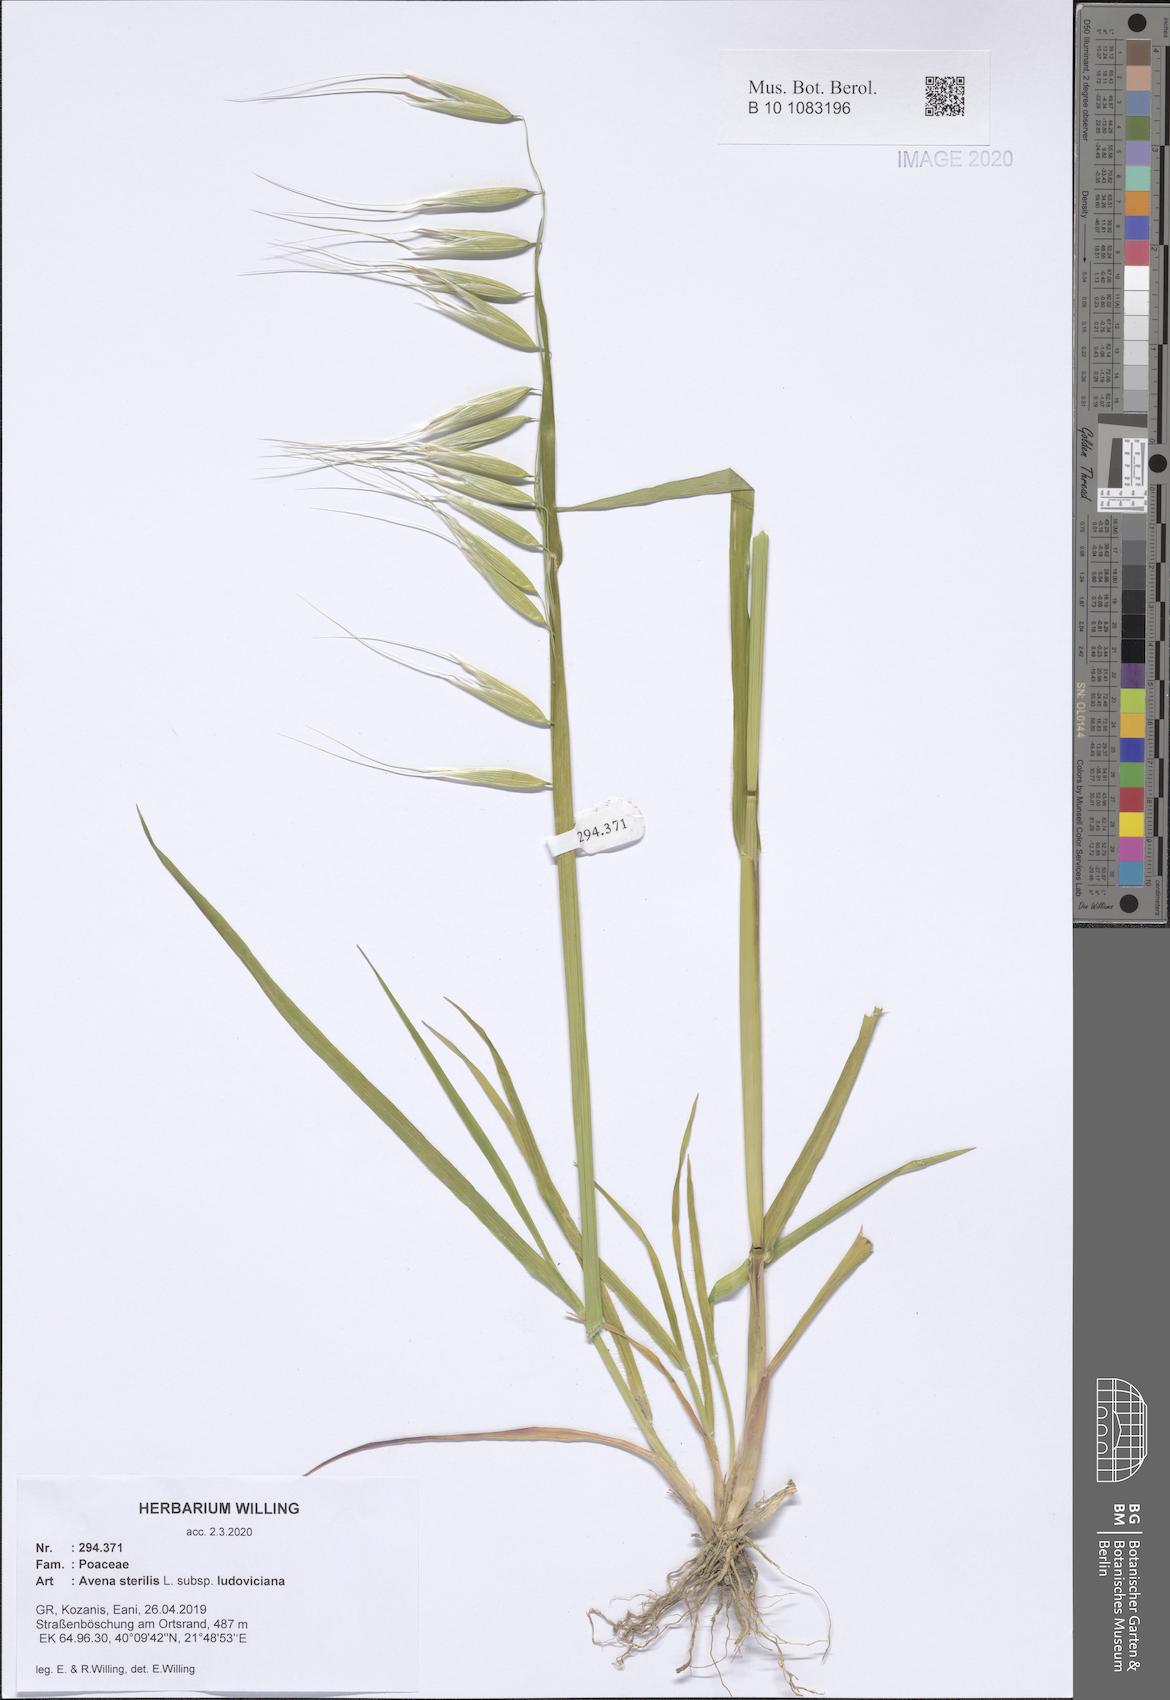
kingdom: Plantae
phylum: Tracheophyta
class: Liliopsida
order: Poales
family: Poaceae
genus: Avena
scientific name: Avena sterilis
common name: Animated oat
